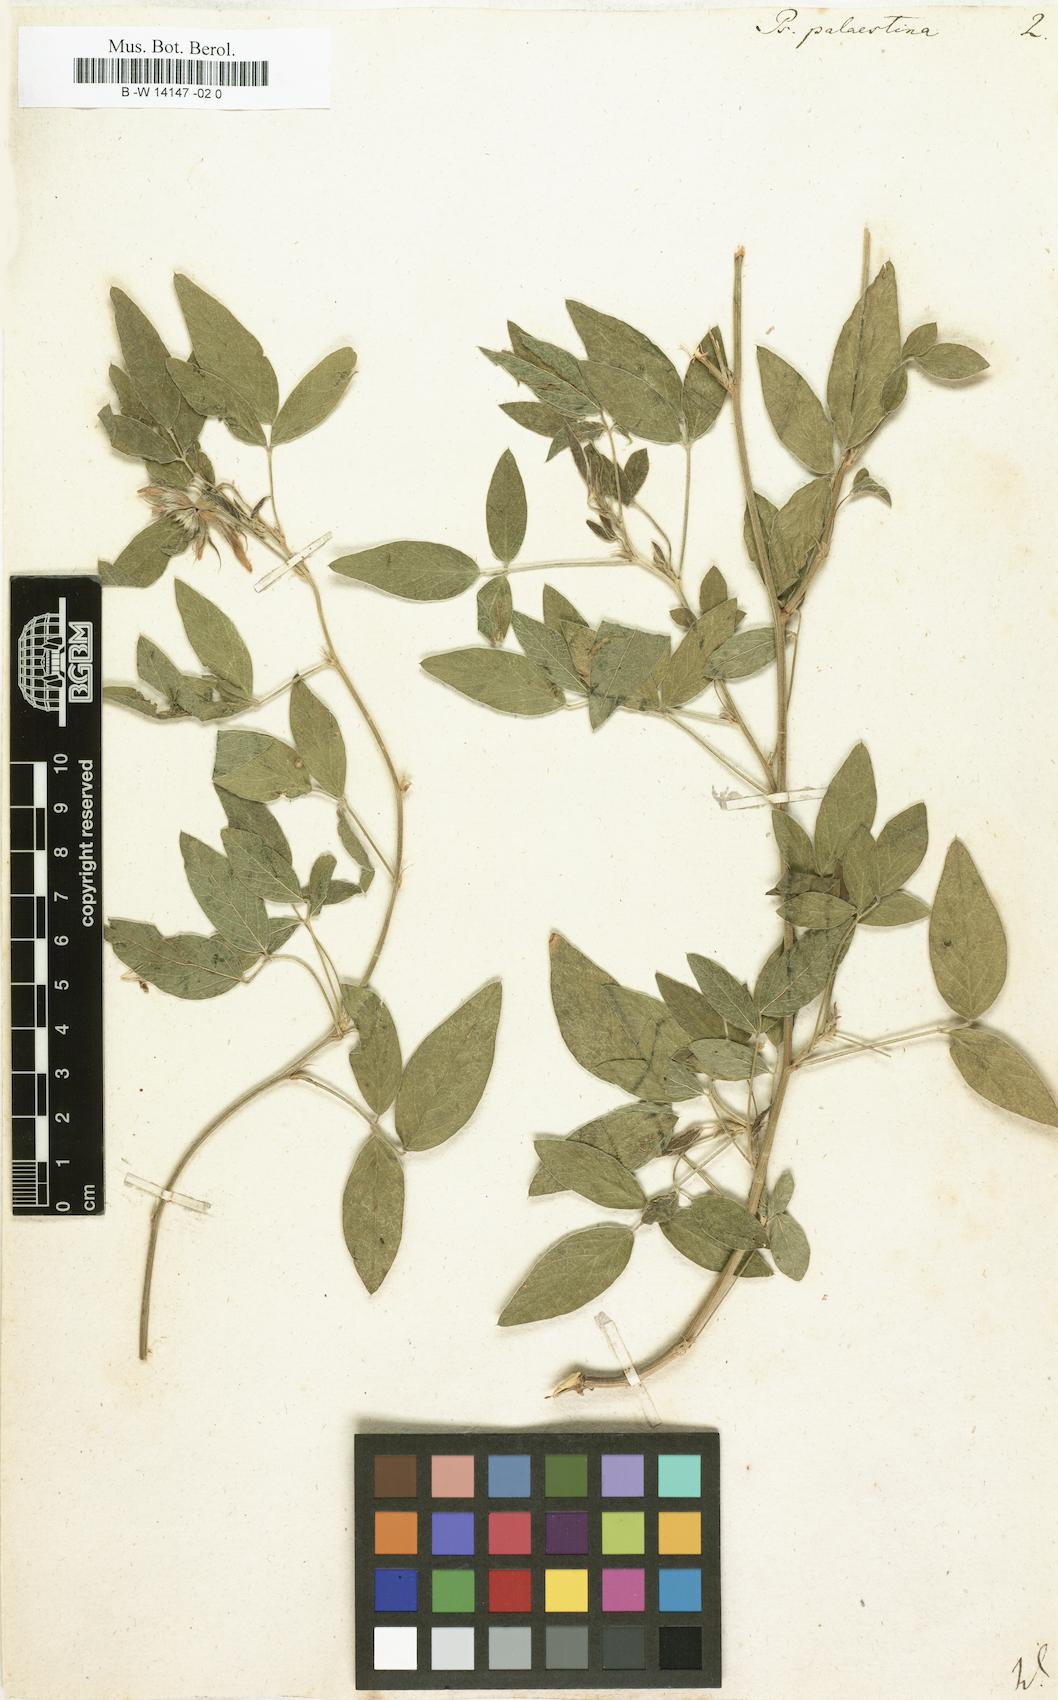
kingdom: Plantae
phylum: Tracheophyta
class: Magnoliopsida
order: Fabales
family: Fabaceae
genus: Bituminaria
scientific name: Bituminaria
